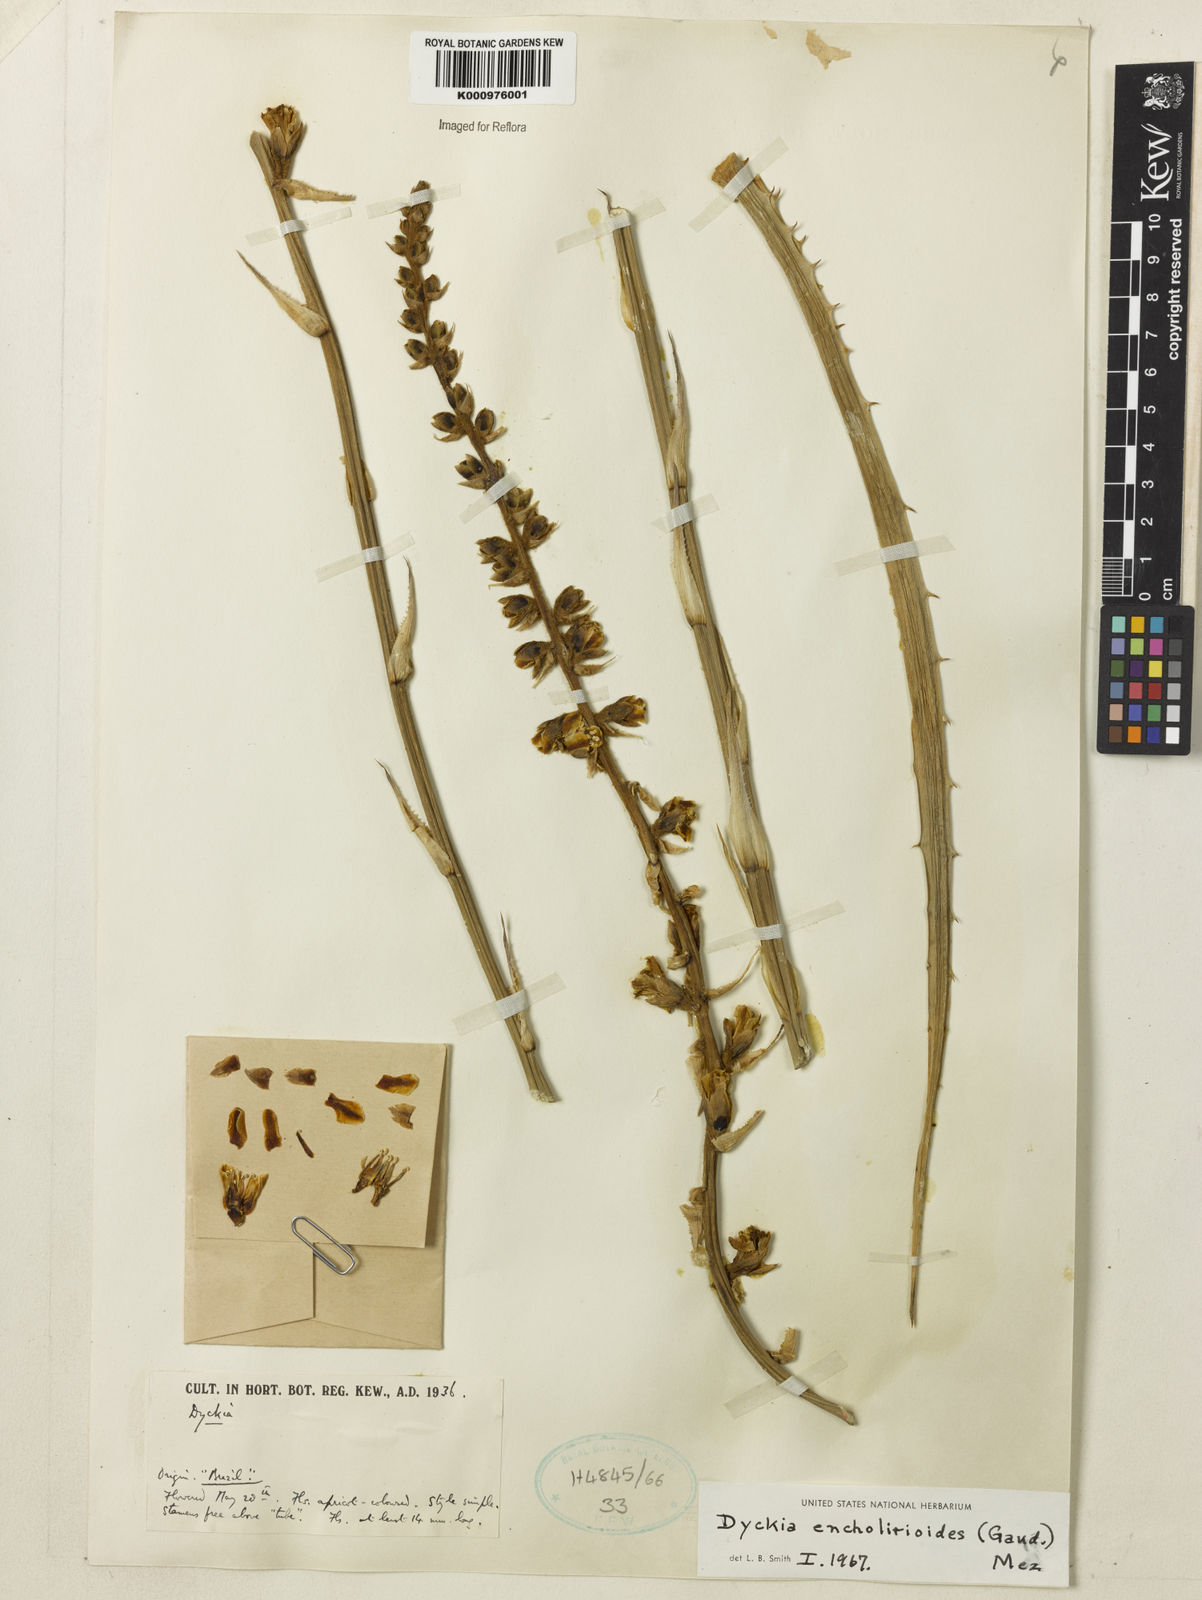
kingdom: Plantae
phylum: Tracheophyta
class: Liliopsida
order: Poales
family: Bromeliaceae
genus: Dyckia
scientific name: Dyckia encholirioides
